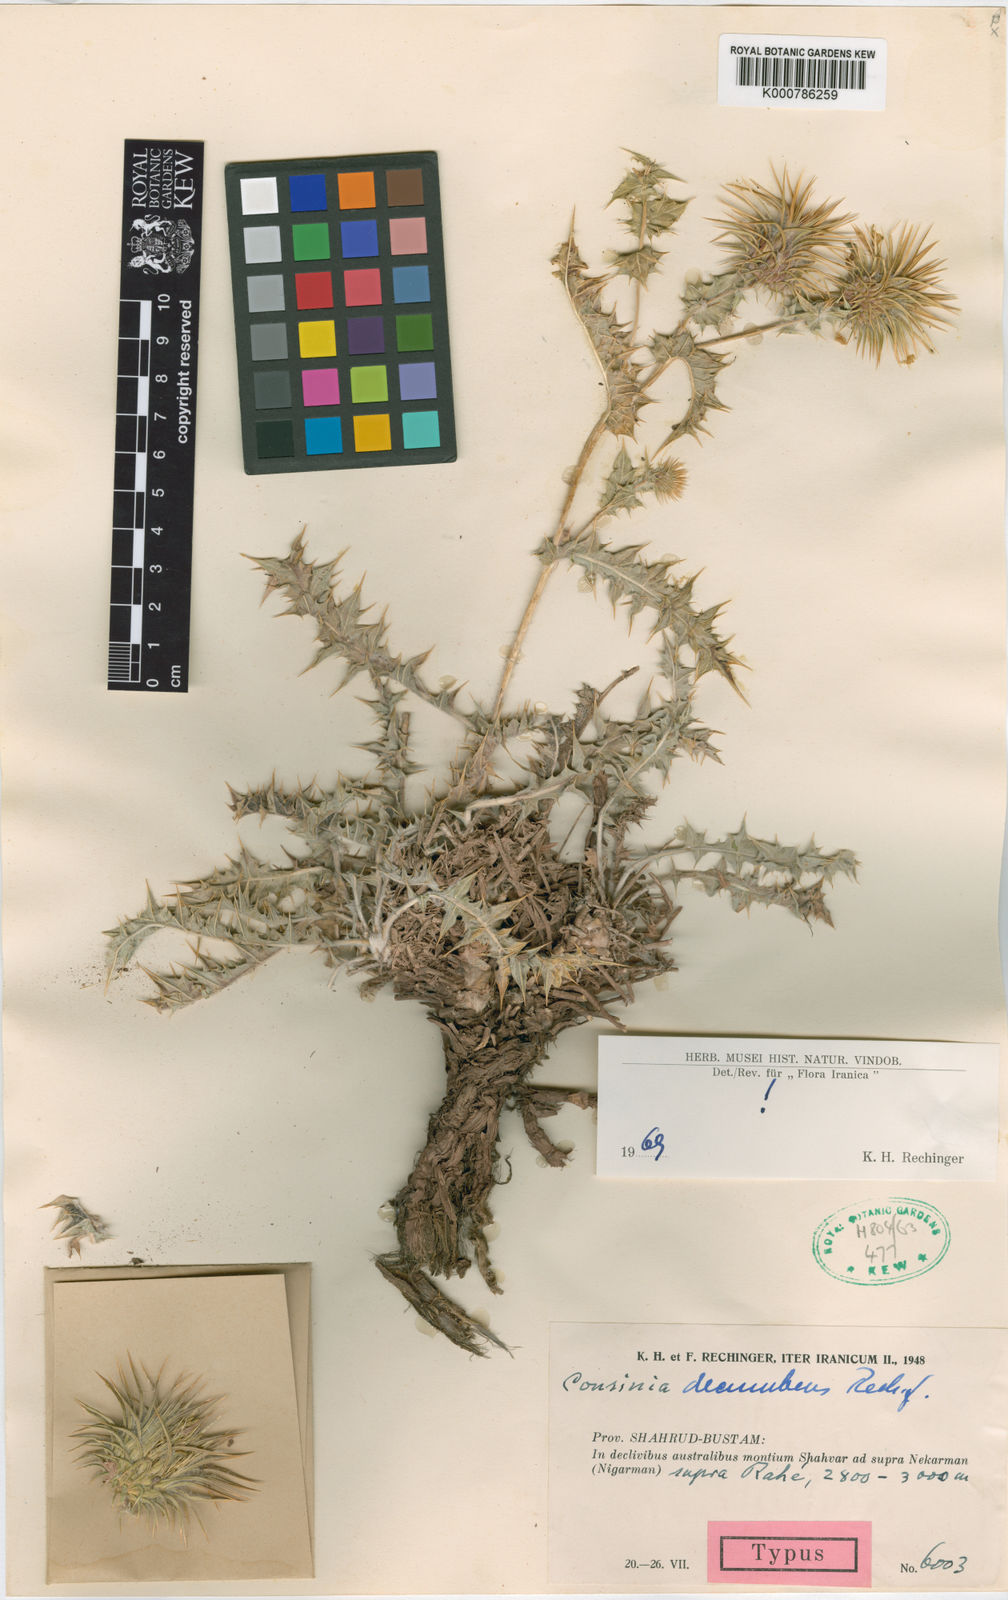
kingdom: Plantae
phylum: Tracheophyta
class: Magnoliopsida
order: Asterales
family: Asteraceae
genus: Cousinia
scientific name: Cousinia decumbens
